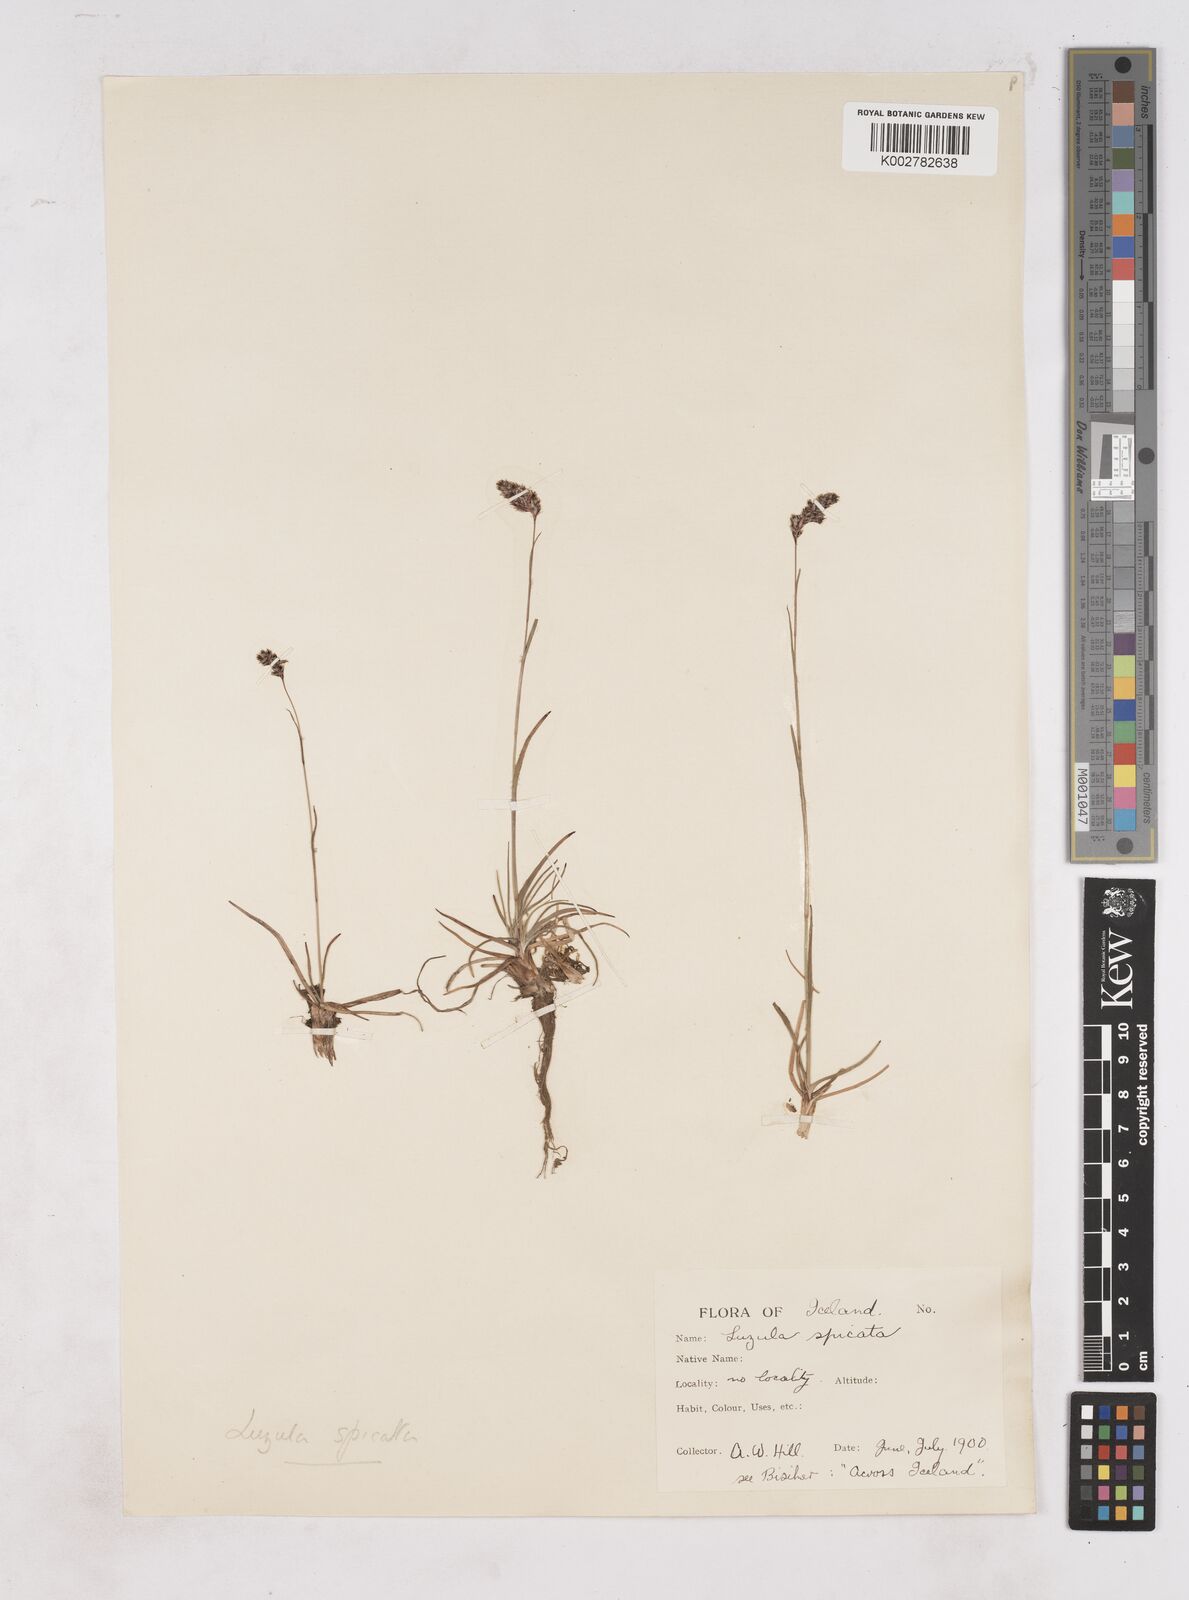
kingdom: Plantae
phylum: Tracheophyta
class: Liliopsida
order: Poales
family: Juncaceae
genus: Luzula
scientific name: Luzula spicata
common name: Spiked wood-rush
